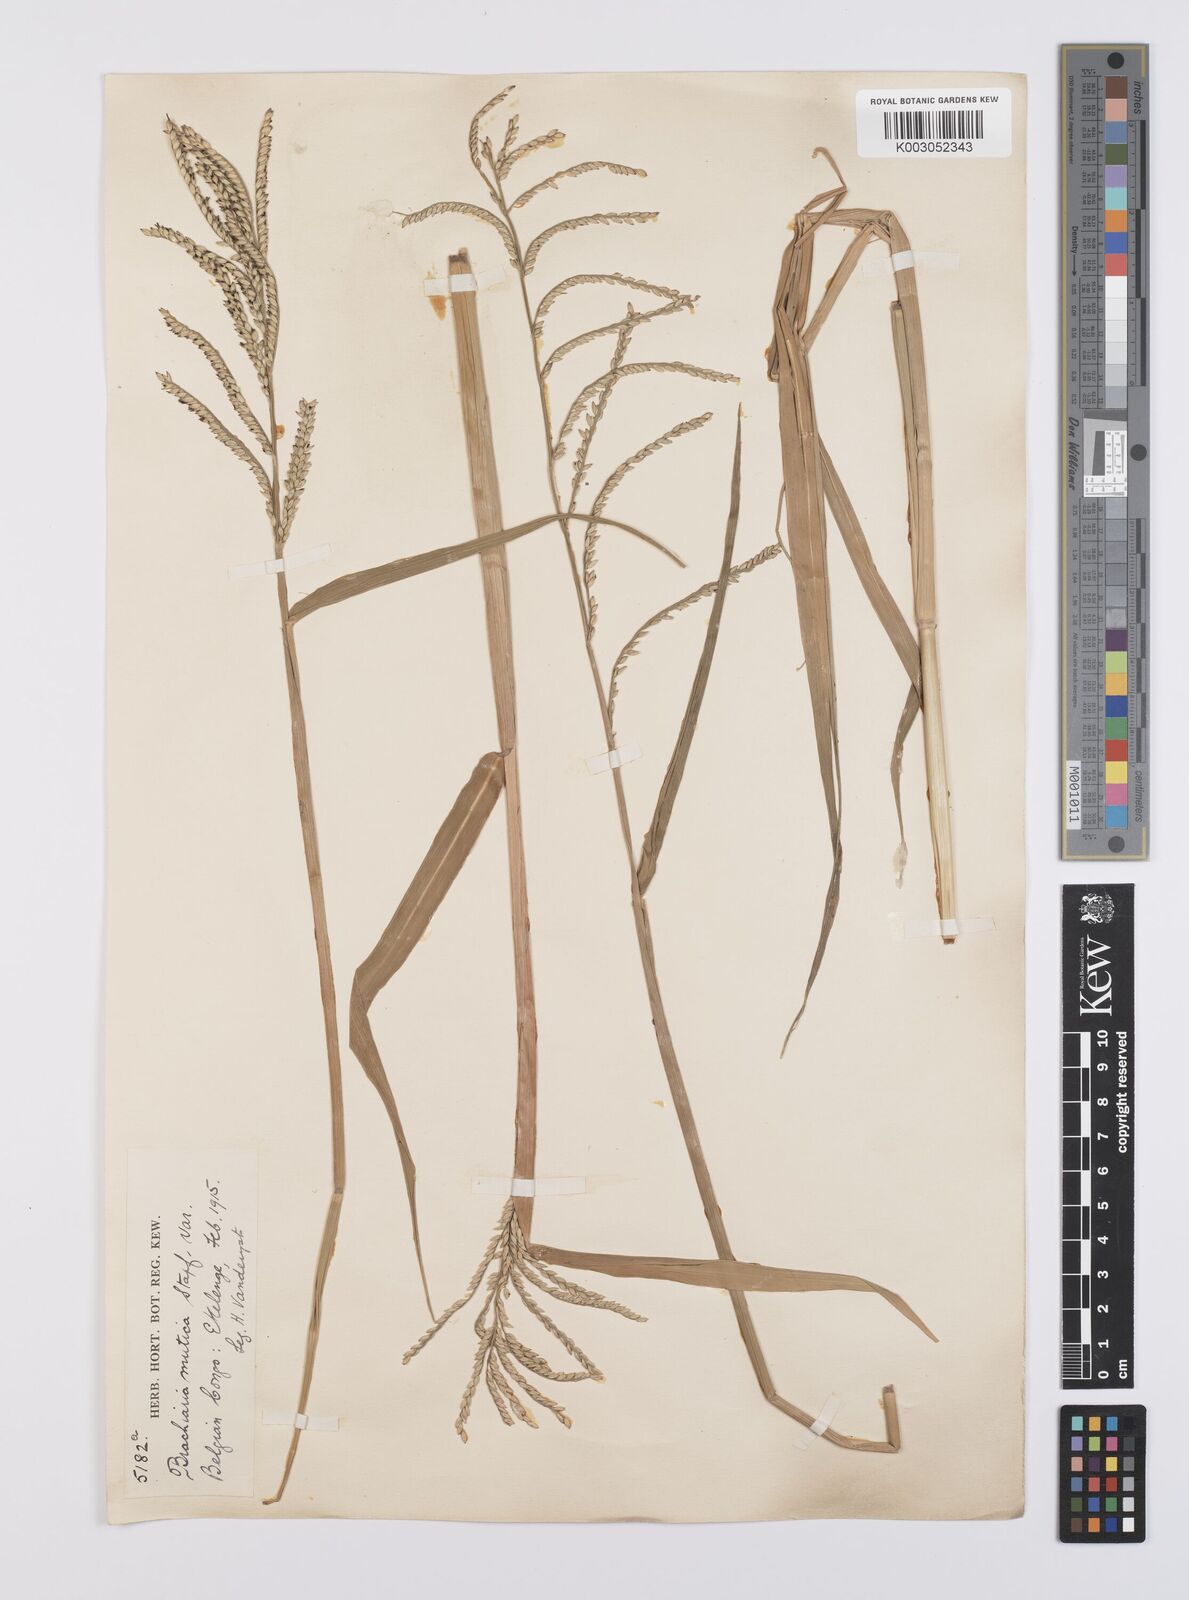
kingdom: Plantae
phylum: Tracheophyta
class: Liliopsida
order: Poales
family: Poaceae
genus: Urochloa
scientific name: Urochloa arrecta
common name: African signalgrass
